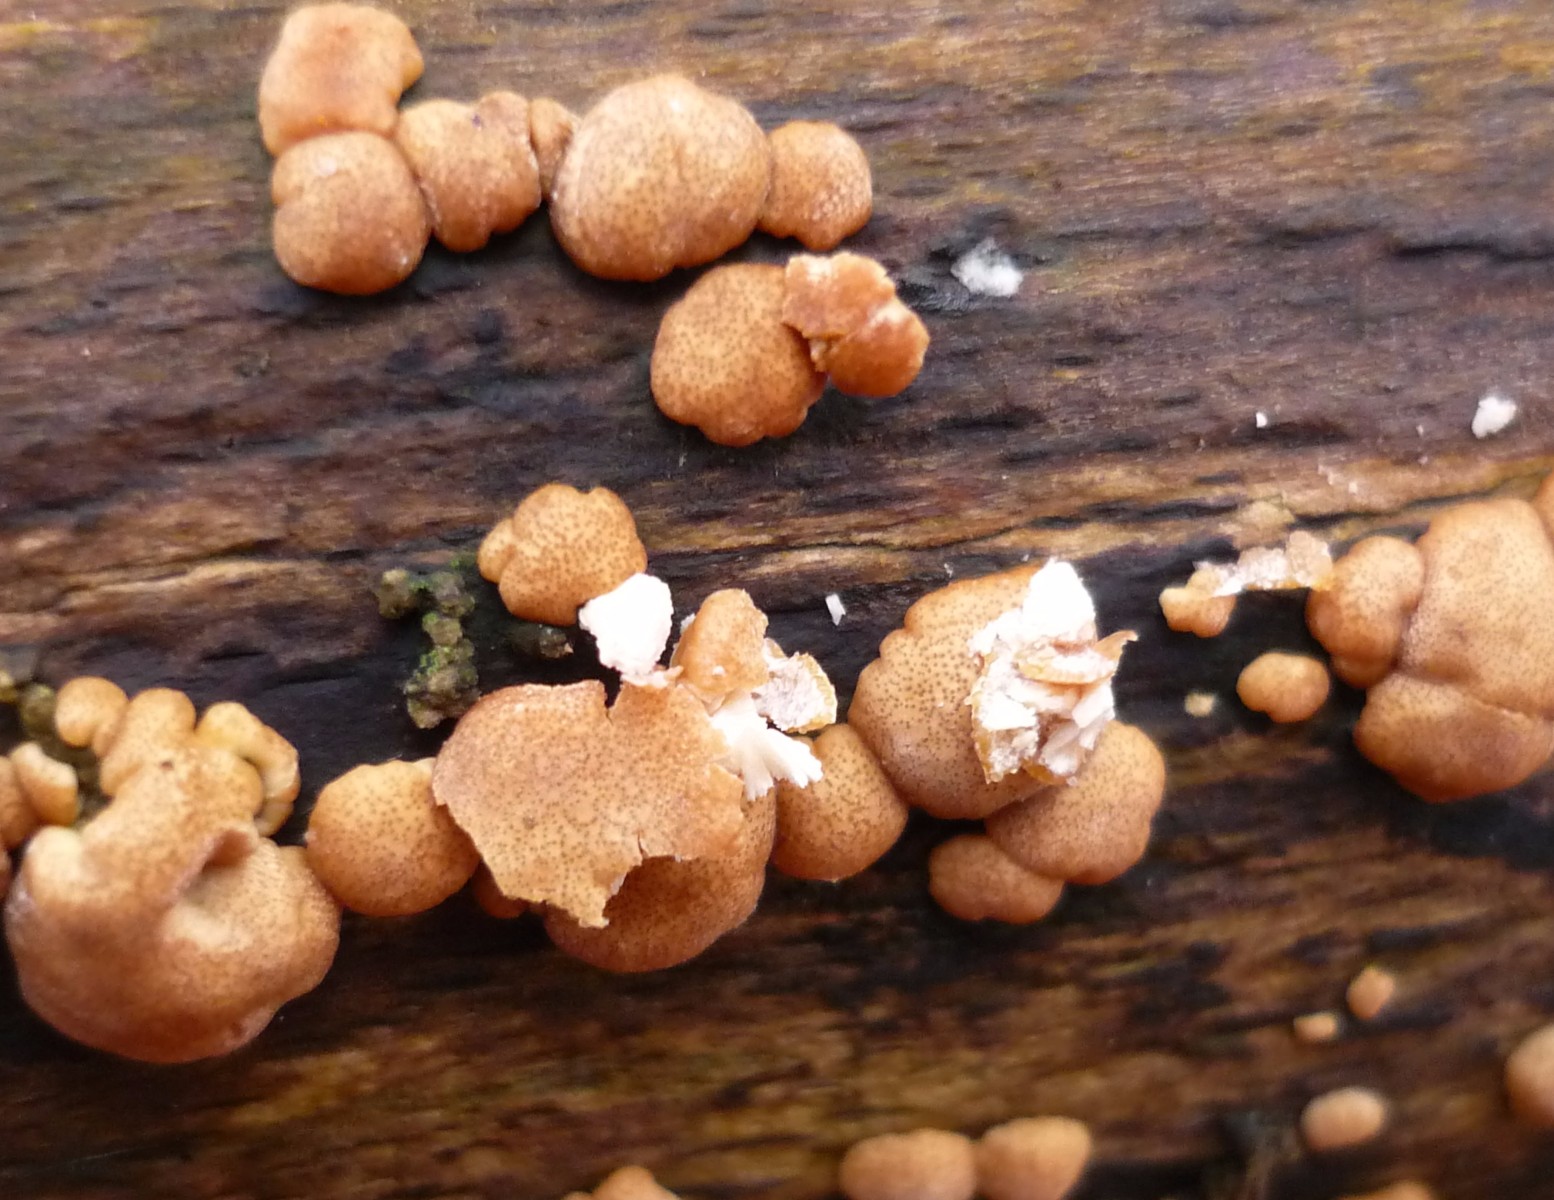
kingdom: Fungi
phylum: Ascomycota
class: Sordariomycetes
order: Hypocreales
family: Hypocreaceae
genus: Trichoderma
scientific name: Trichoderma europaeum
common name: rosabrun kødkerne
